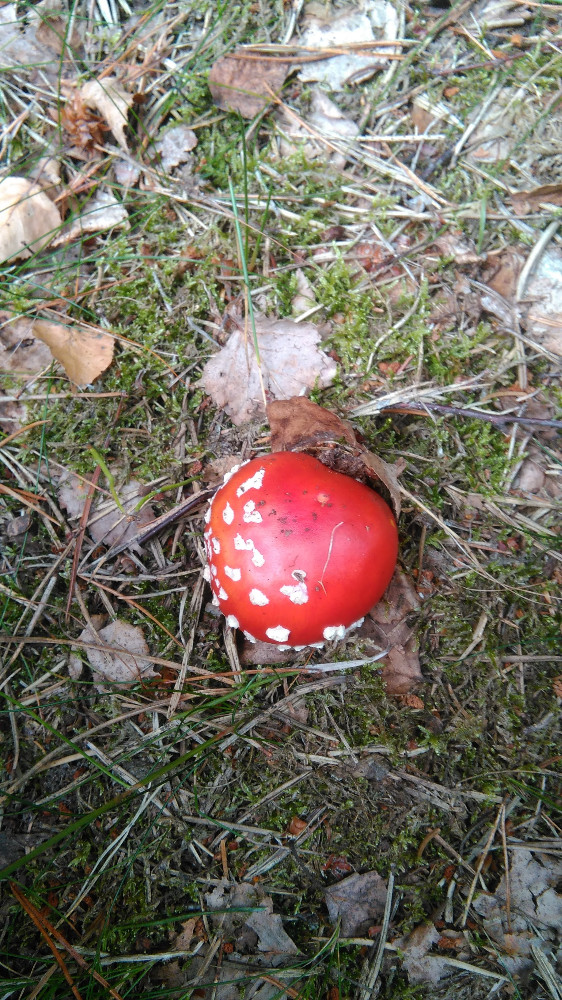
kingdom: Fungi
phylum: Basidiomycota
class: Agaricomycetes
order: Agaricales
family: Amanitaceae
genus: Amanita
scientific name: Amanita muscaria
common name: rød fluesvamp
